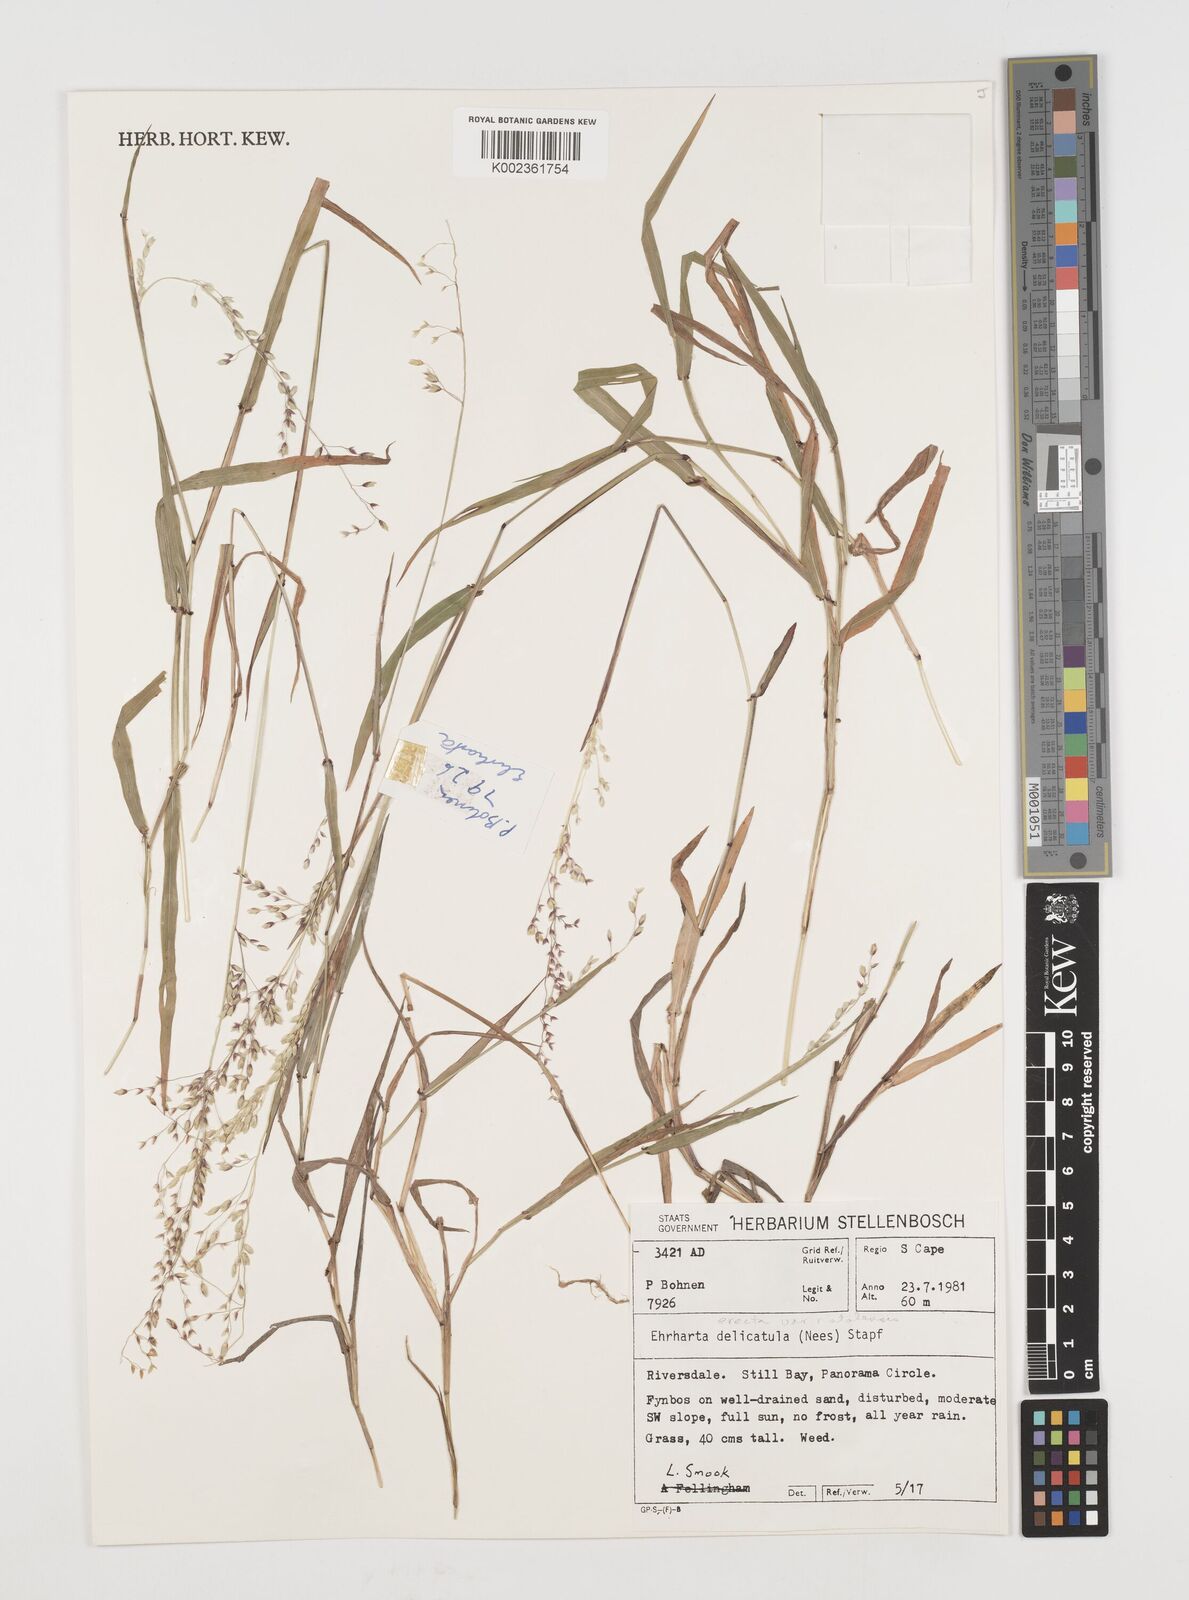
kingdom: Plantae
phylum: Tracheophyta
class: Liliopsida
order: Poales
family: Poaceae
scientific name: Poaceae
